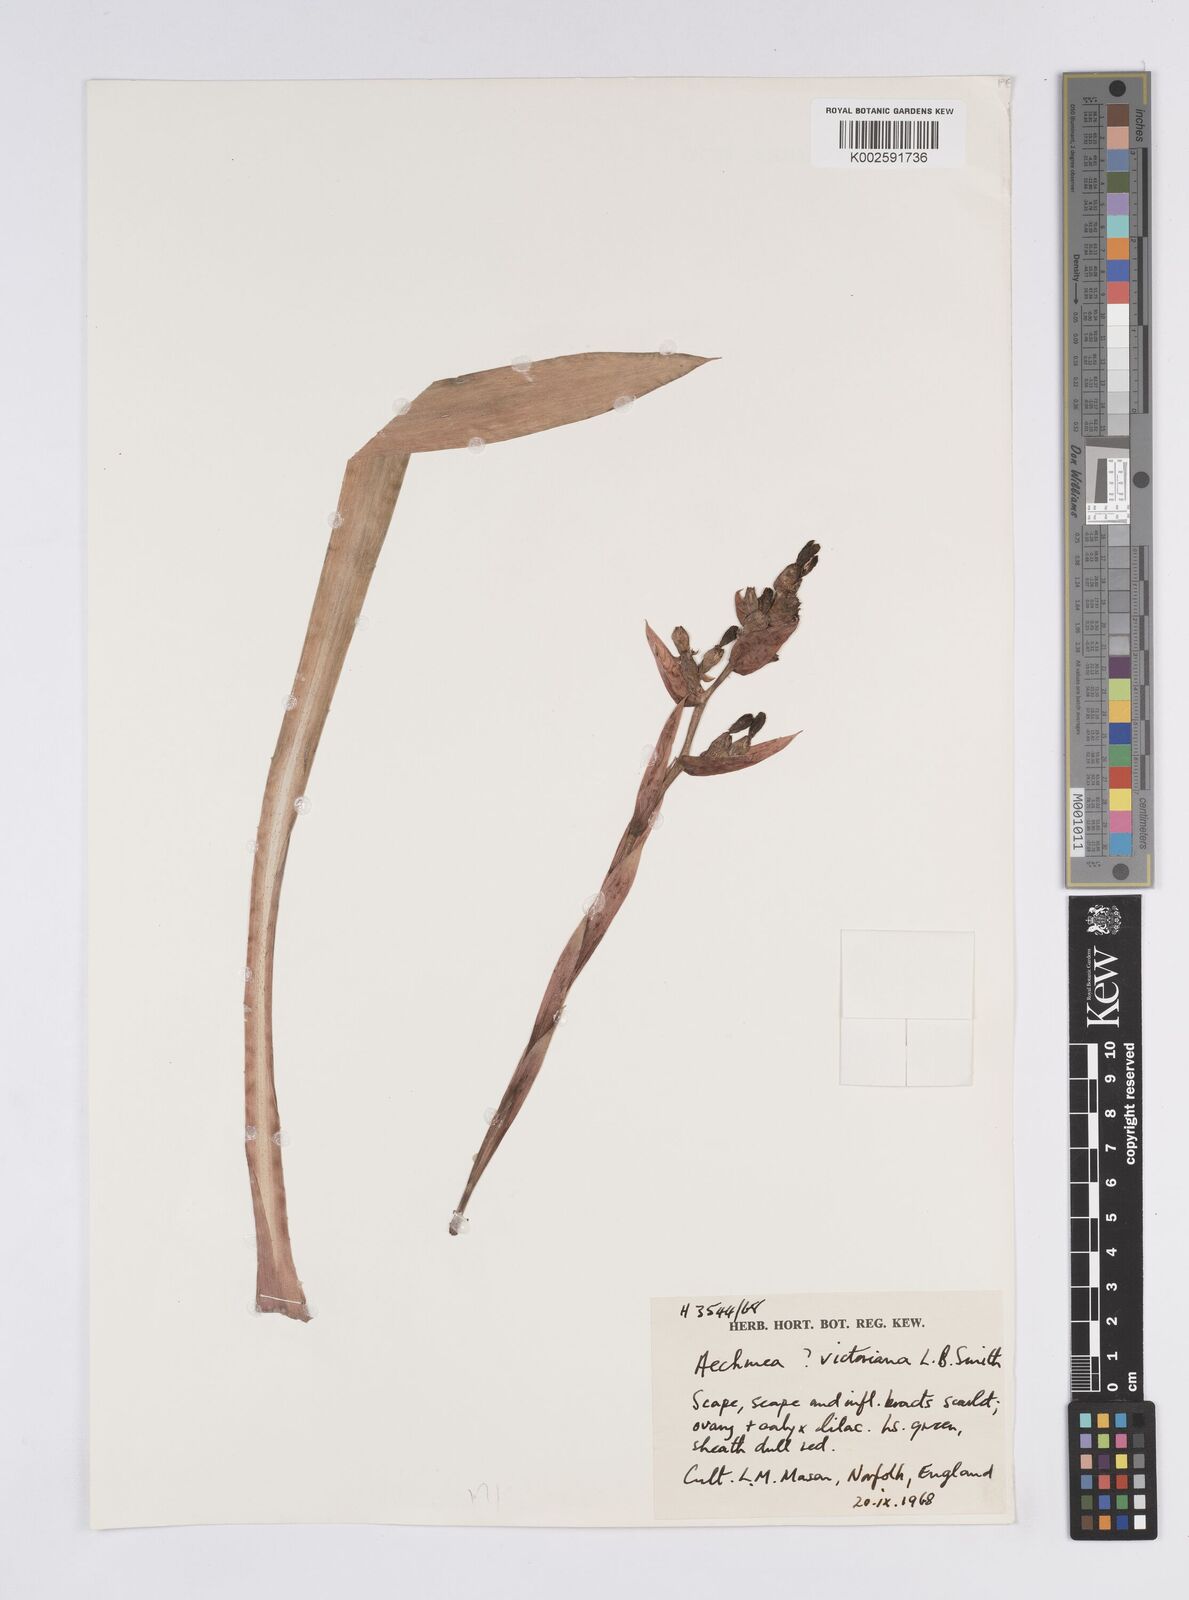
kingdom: Plantae
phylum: Tracheophyta
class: Liliopsida
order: Poales
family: Bromeliaceae
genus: Aechmea
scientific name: Aechmea victoriana
